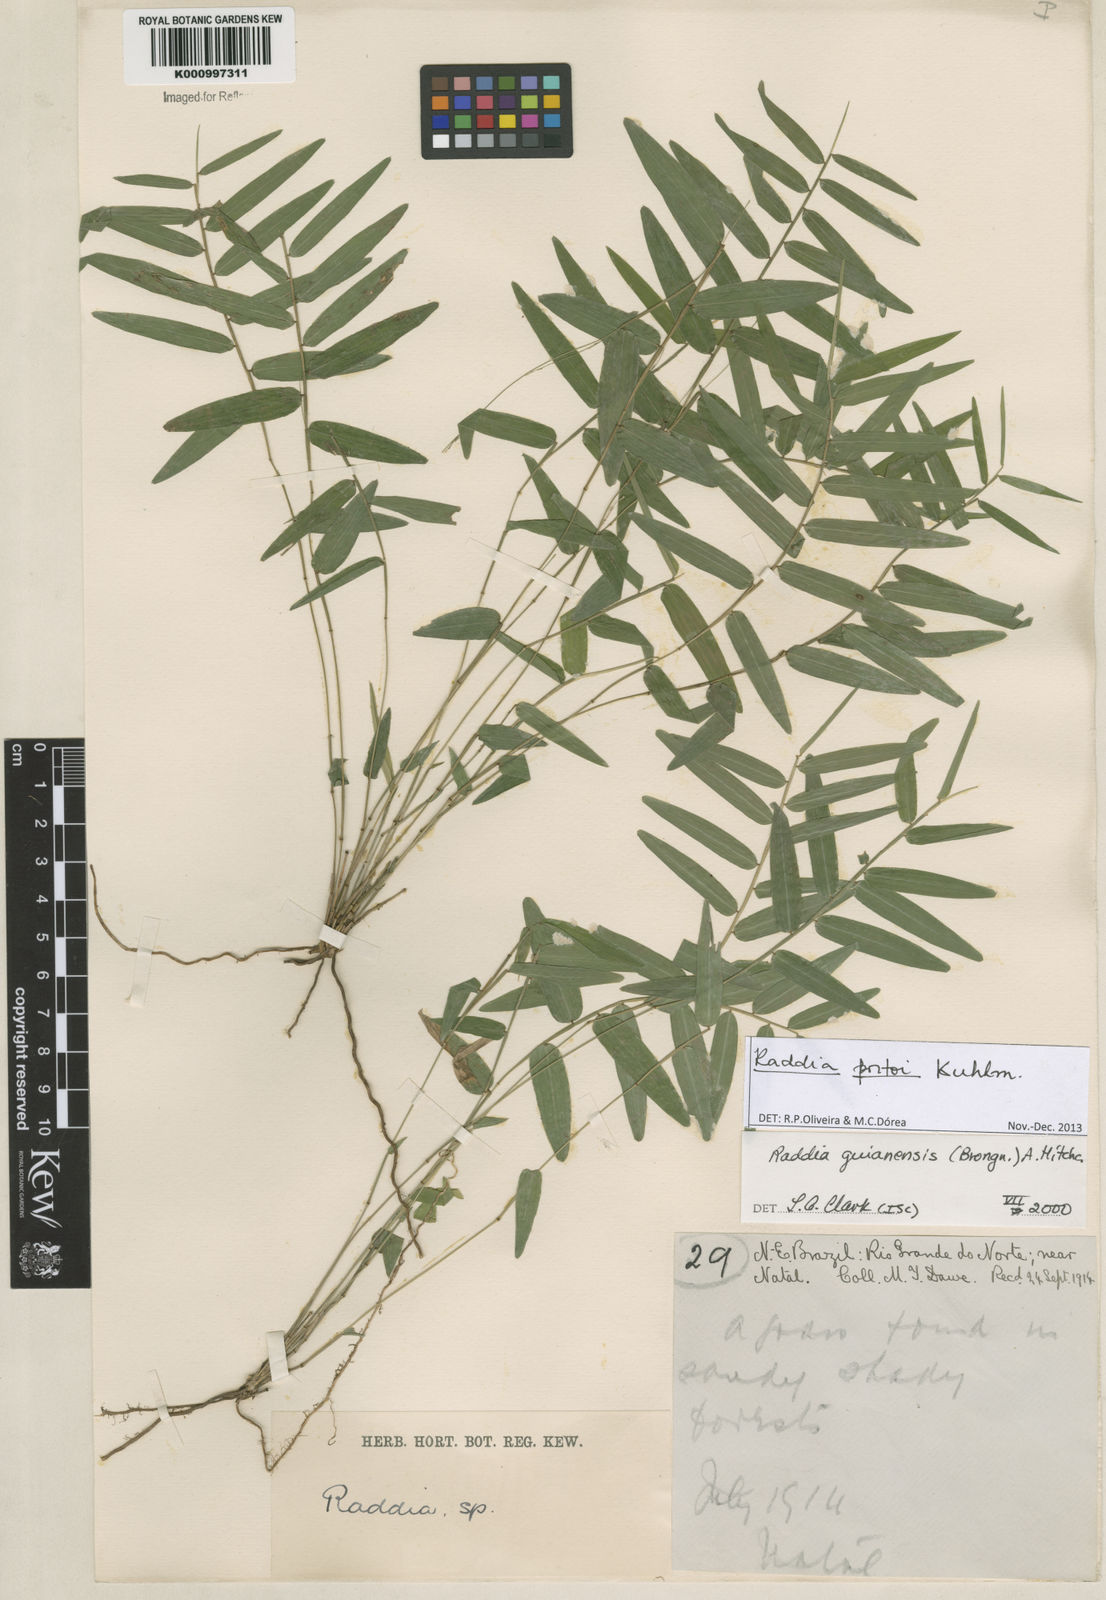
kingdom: Plantae
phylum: Tracheophyta
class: Liliopsida
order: Poales
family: Poaceae
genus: Raddia
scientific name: Raddia portoi
